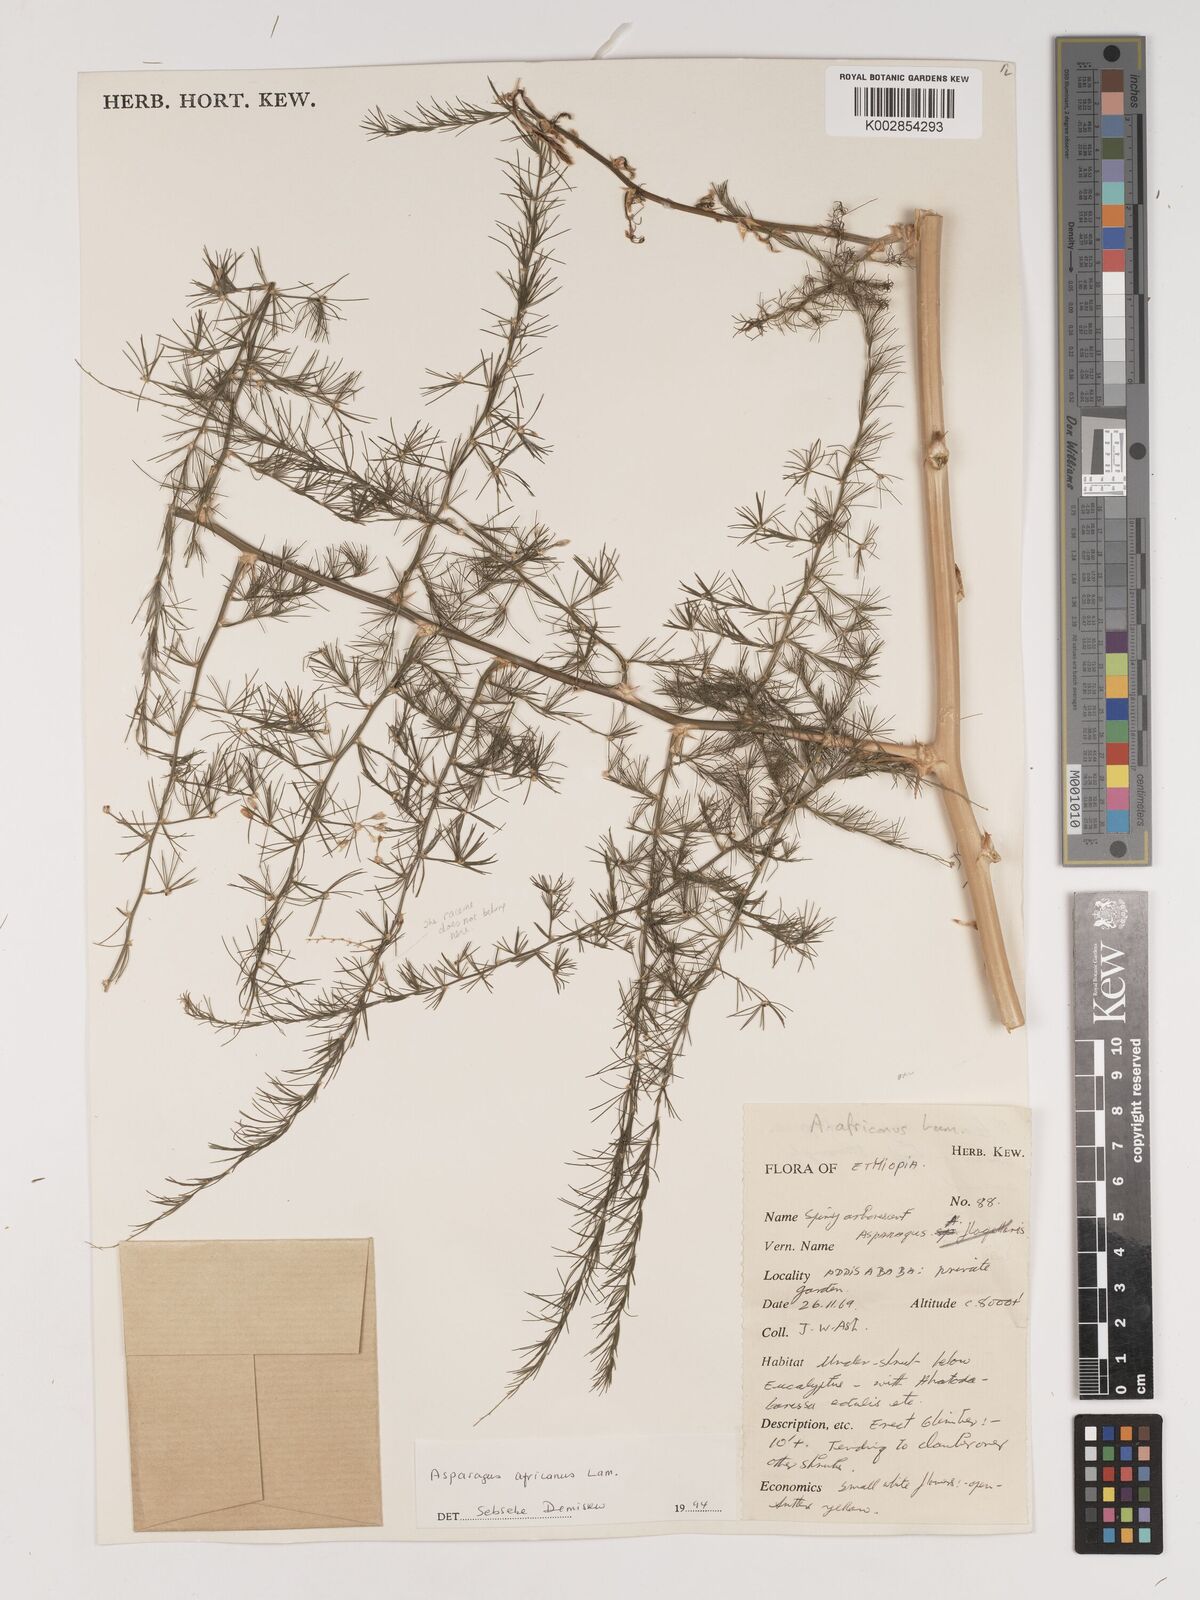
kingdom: Plantae
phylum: Tracheophyta
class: Liliopsida
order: Asparagales
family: Asparagaceae
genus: Asparagus
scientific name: Asparagus africanus
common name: Asparagus-fern
